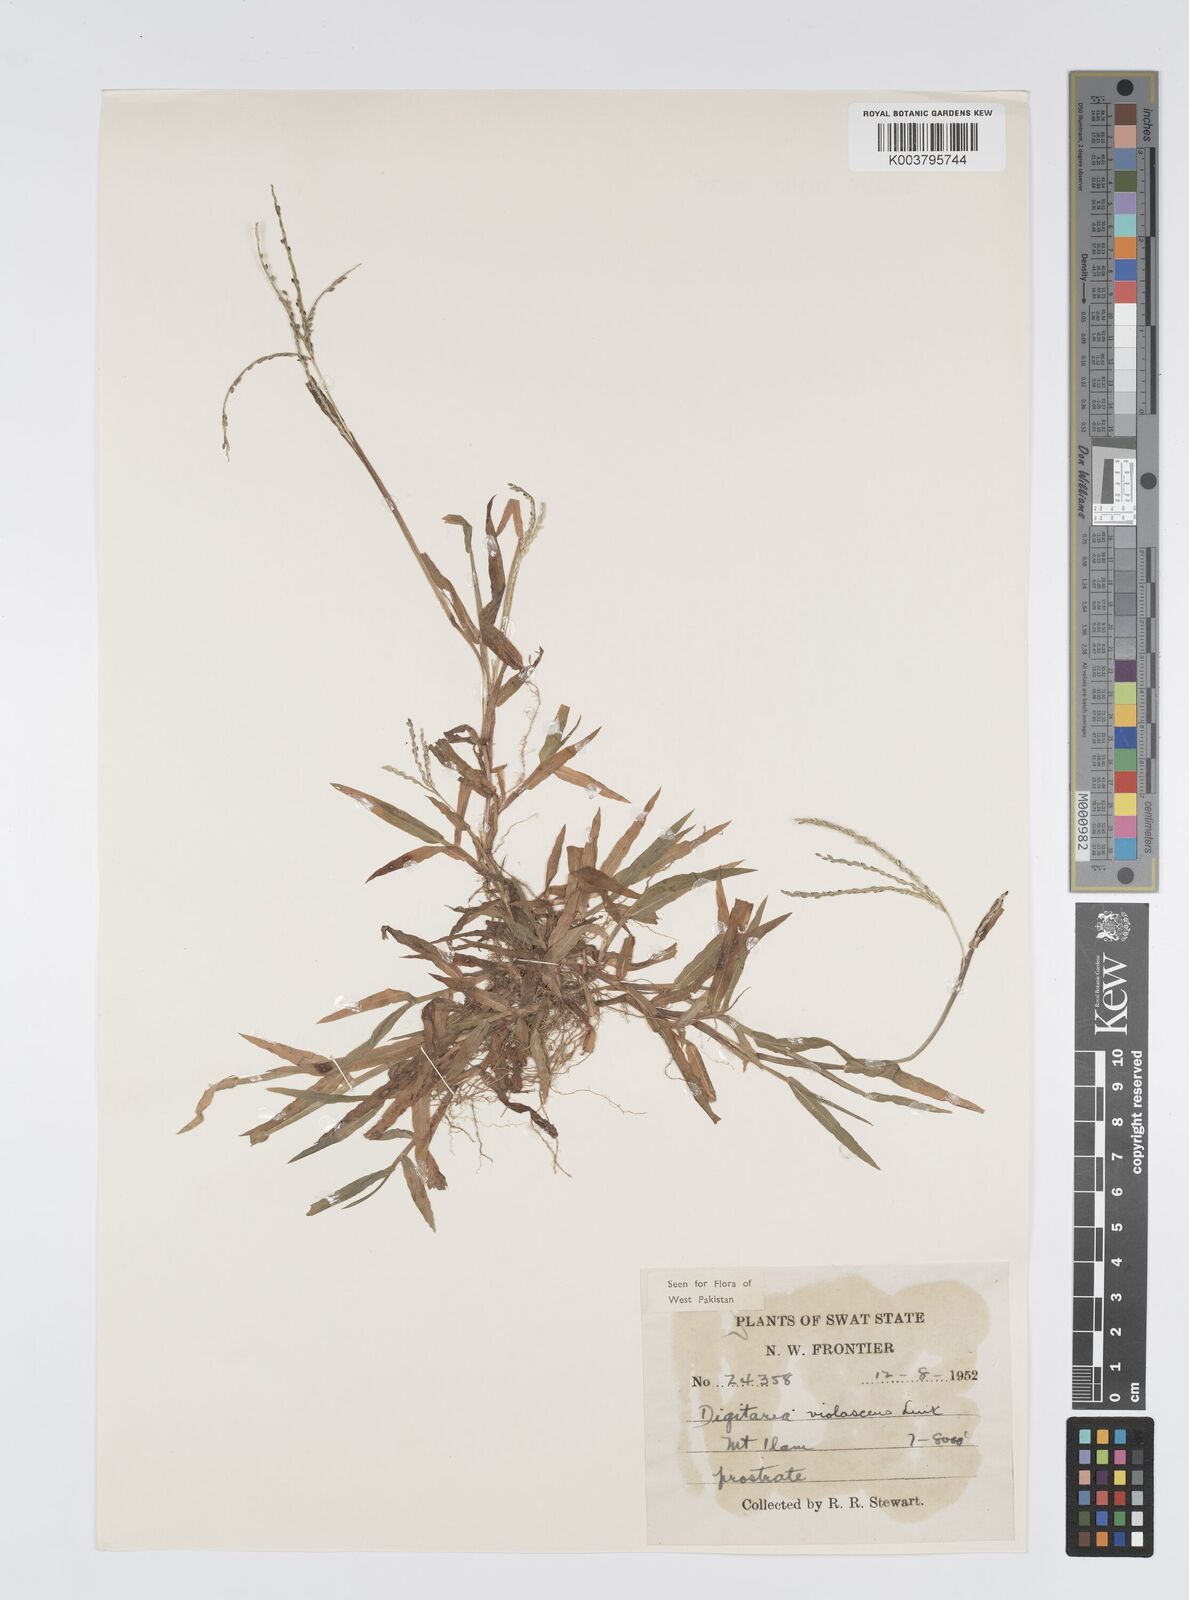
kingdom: Plantae
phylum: Tracheophyta
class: Liliopsida
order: Poales
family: Poaceae
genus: Digitaria
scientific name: Digitaria violascens
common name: Violet crabgrass
